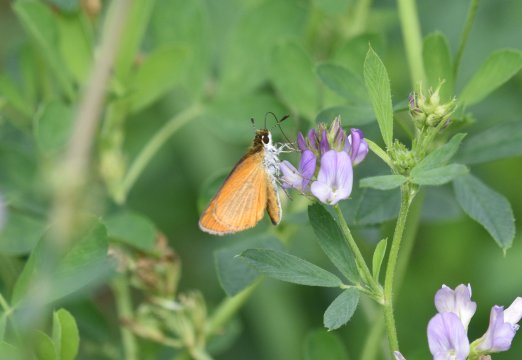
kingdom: Animalia
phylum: Arthropoda
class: Insecta
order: Lepidoptera
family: Hesperiidae
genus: Ancyloxypha
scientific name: Ancyloxypha numitor
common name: Least Skipper
